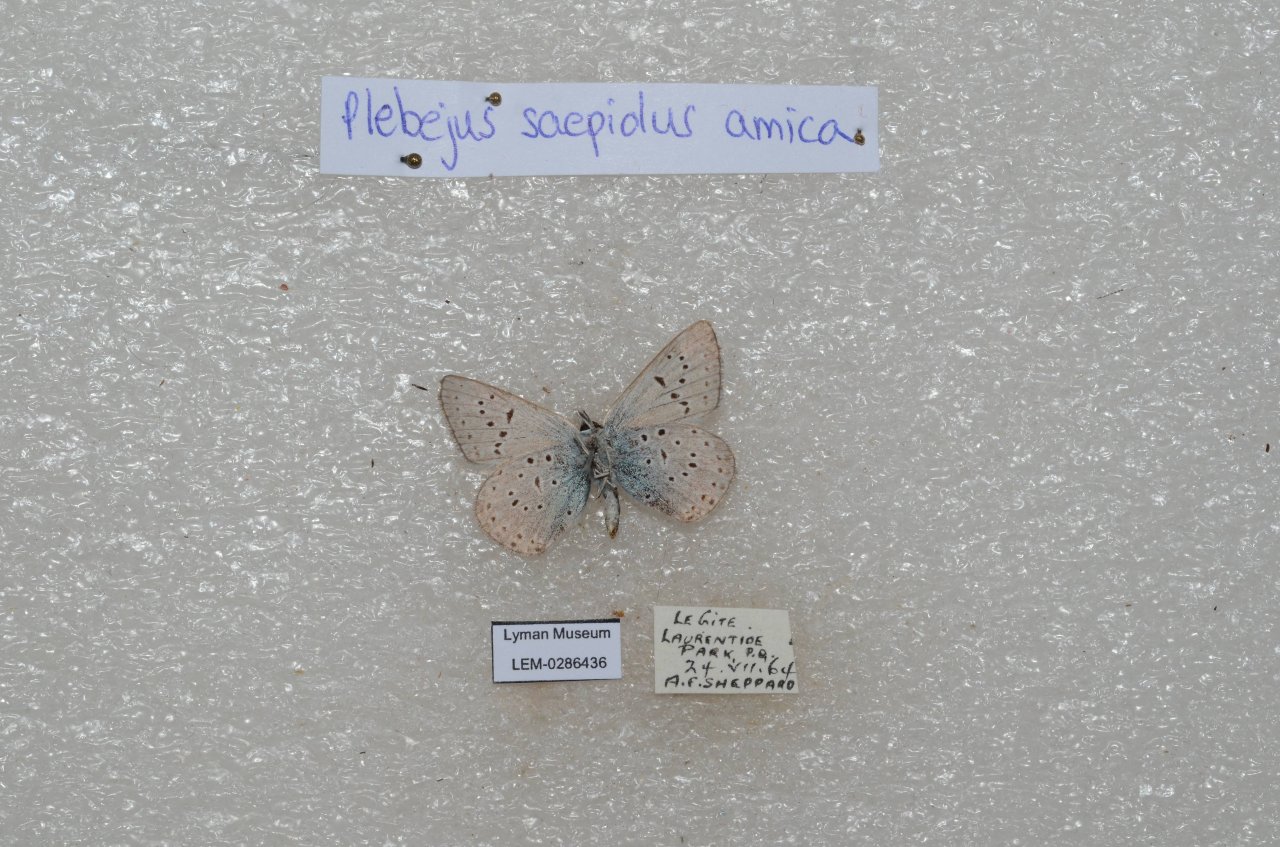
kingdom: Animalia
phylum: Arthropoda
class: Insecta
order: Lepidoptera
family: Lycaenidae
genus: Plebejus
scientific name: Plebejus saepiolus
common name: Greenish Blue
